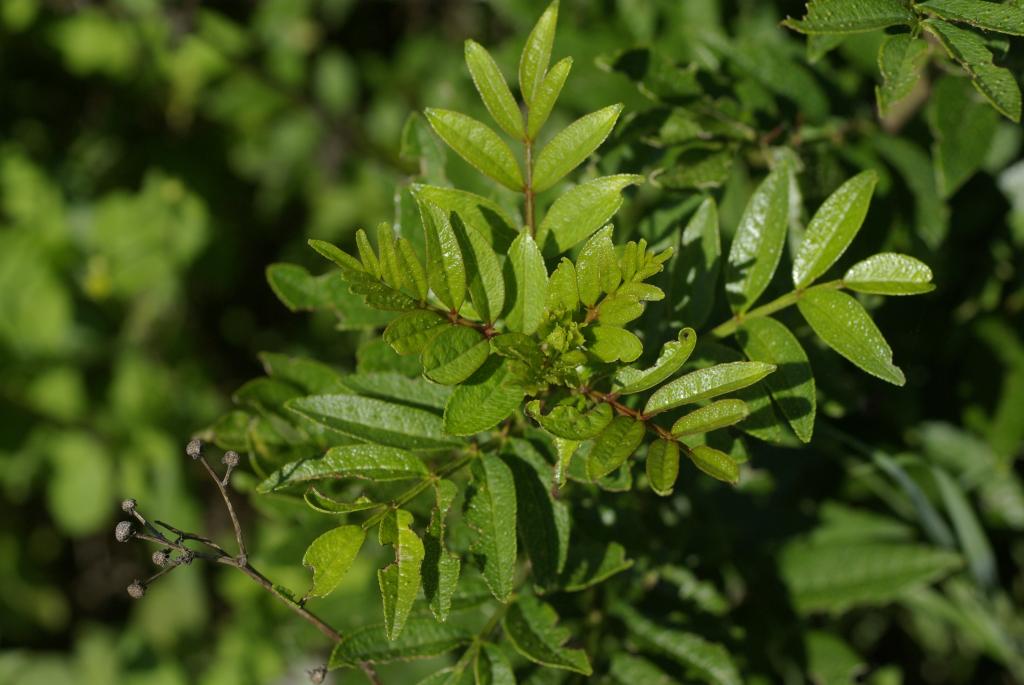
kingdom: Plantae
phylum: Tracheophyta
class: Magnoliopsida
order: Sapindales
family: Rutaceae
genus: Zanthoxylum
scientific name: Zanthoxylum simulans
